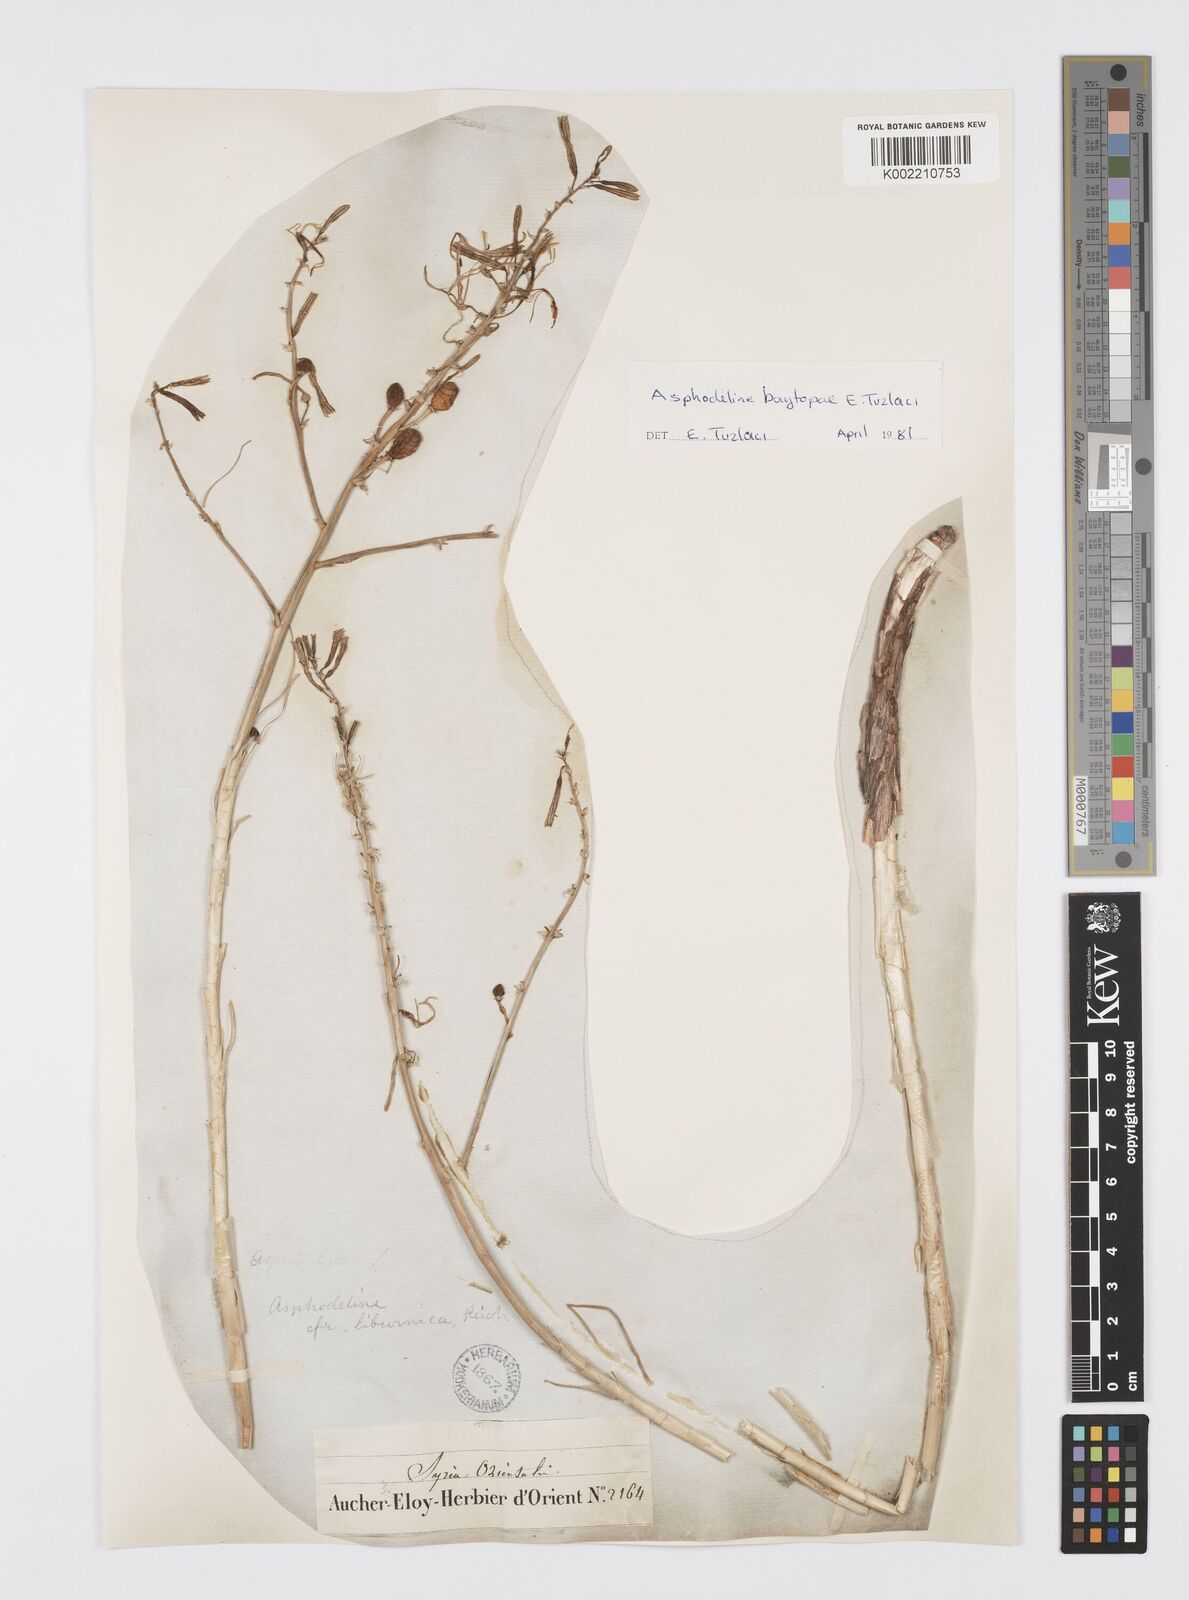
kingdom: Plantae
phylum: Tracheophyta
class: Liliopsida
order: Asparagales
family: Asphodelaceae
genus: Asphodeline
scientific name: Asphodeline baytopiae
